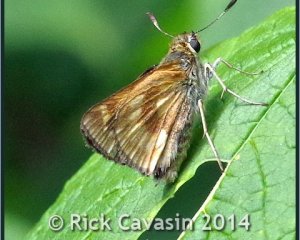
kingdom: Animalia
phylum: Arthropoda
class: Insecta
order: Lepidoptera
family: Hesperiidae
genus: Polites
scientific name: Polites
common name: Long Dash Skipper
